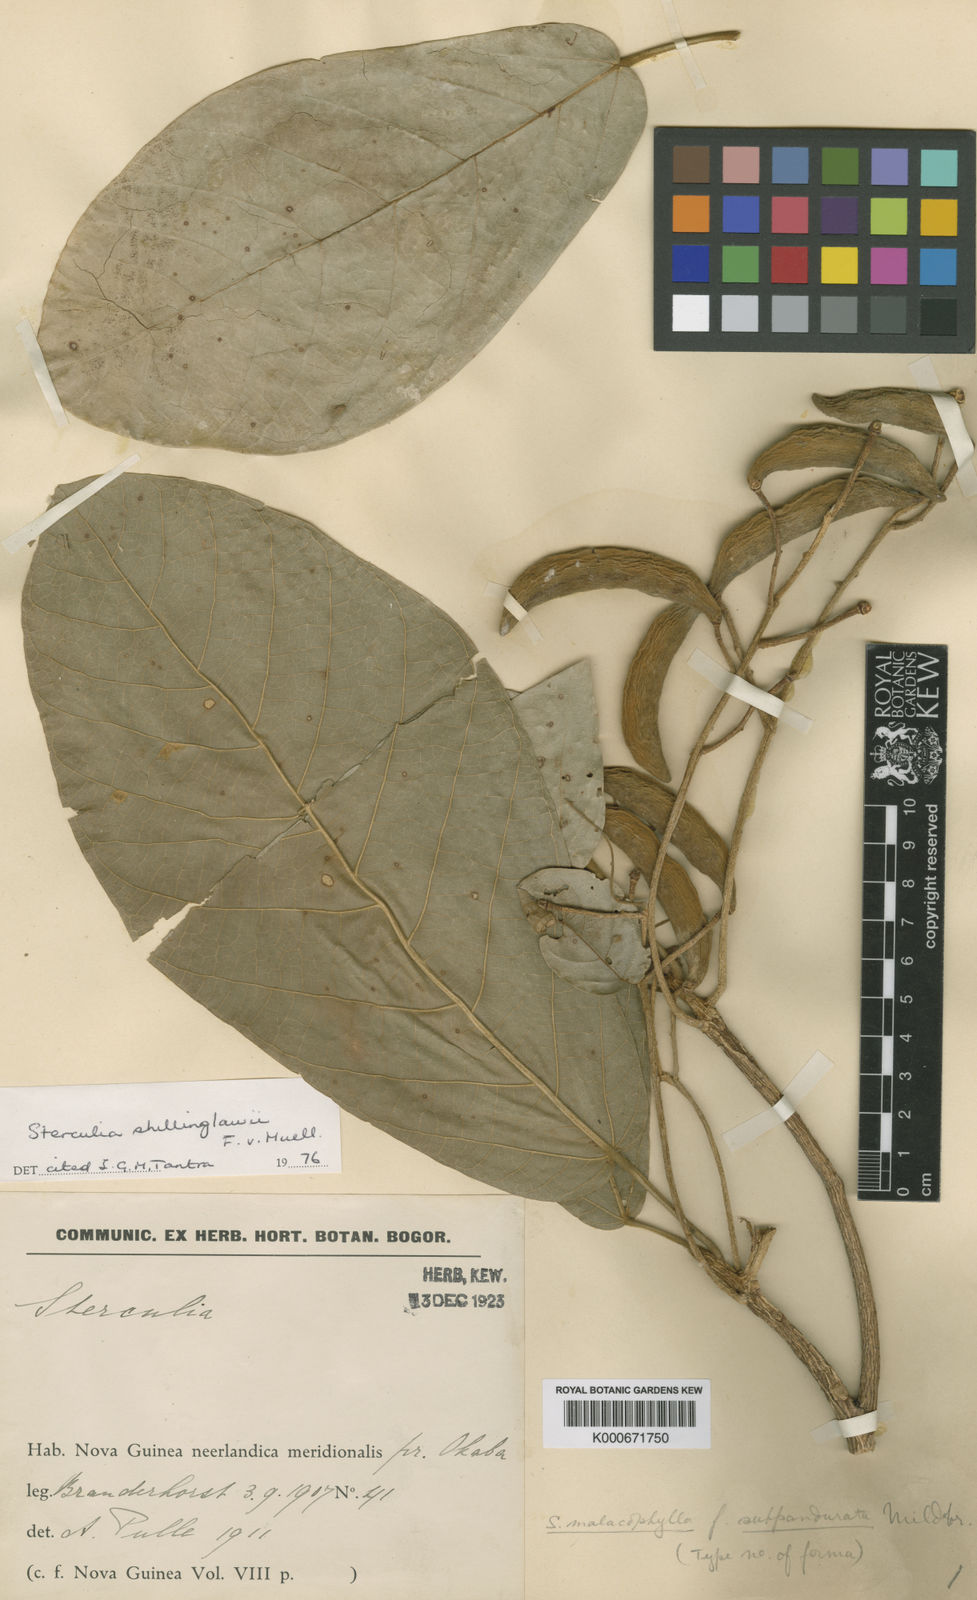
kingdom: Plantae
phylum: Tracheophyta
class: Magnoliopsida
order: Malvales
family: Malvaceae
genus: Sterculia
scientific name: Sterculia shillinglawii
